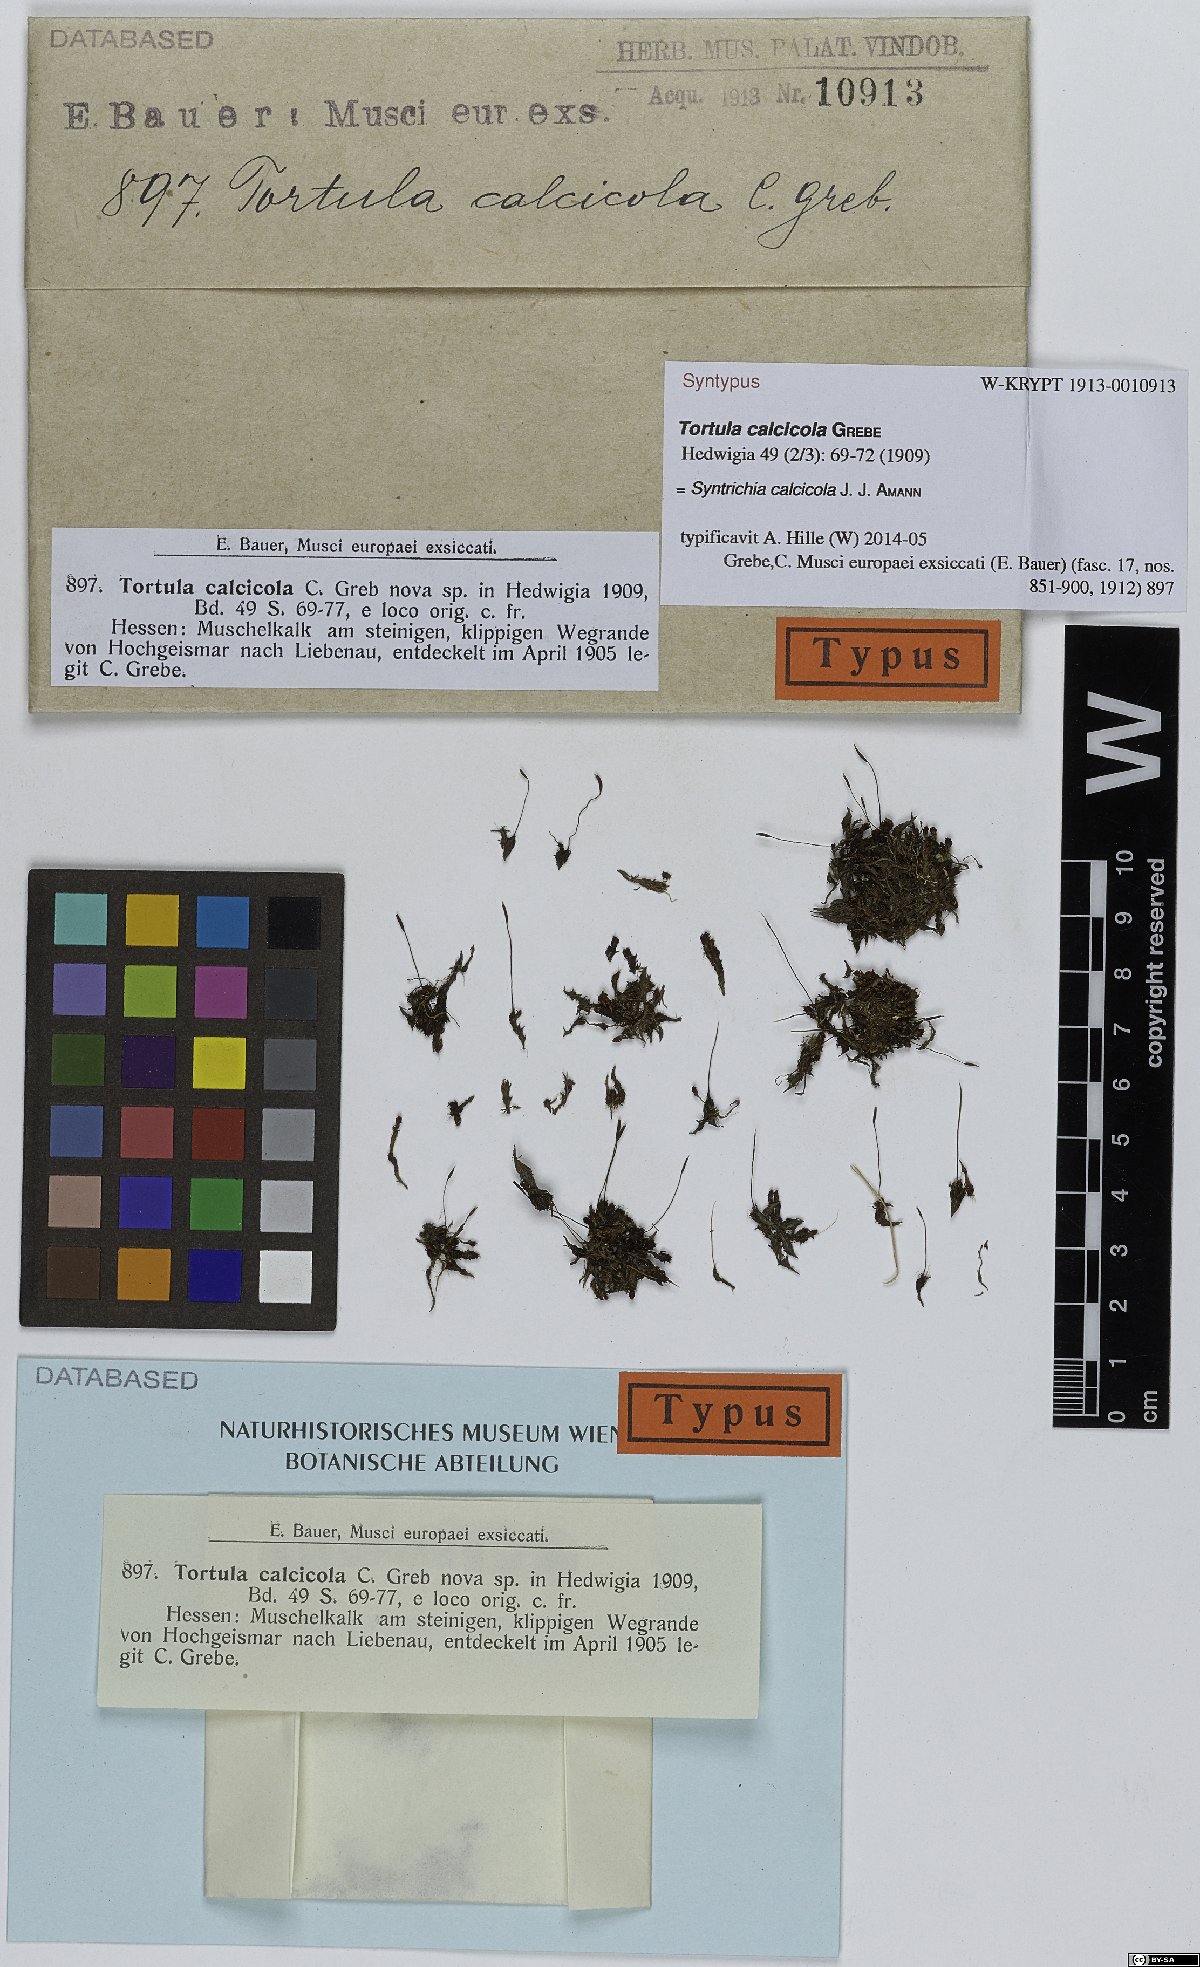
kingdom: Plantae
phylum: Bryophyta
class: Bryopsida
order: Pottiales
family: Pottiaceae
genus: Syntrichia
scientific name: Syntrichia calcicola
